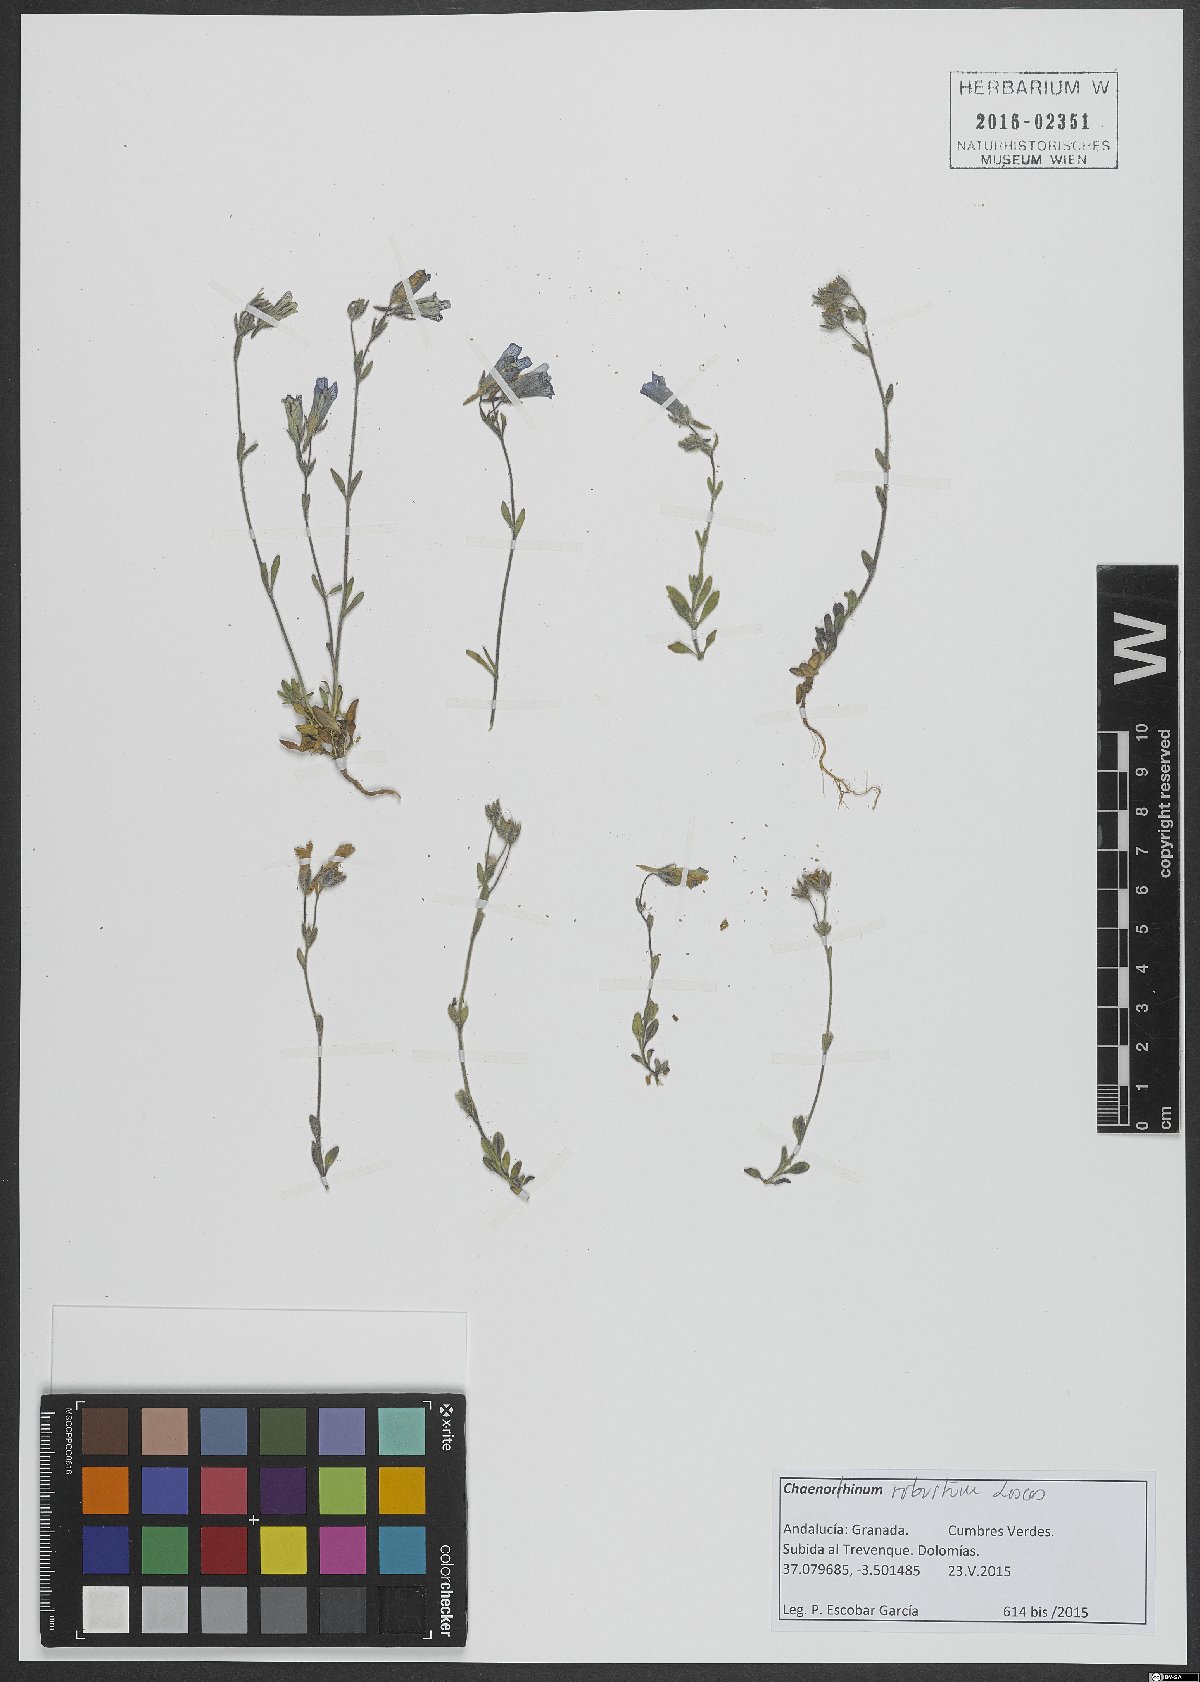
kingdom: Plantae
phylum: Tracheophyta
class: Magnoliopsida
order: Lamiales
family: Plantaginaceae
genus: Chaenorhinum
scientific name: Chaenorhinum robustum
